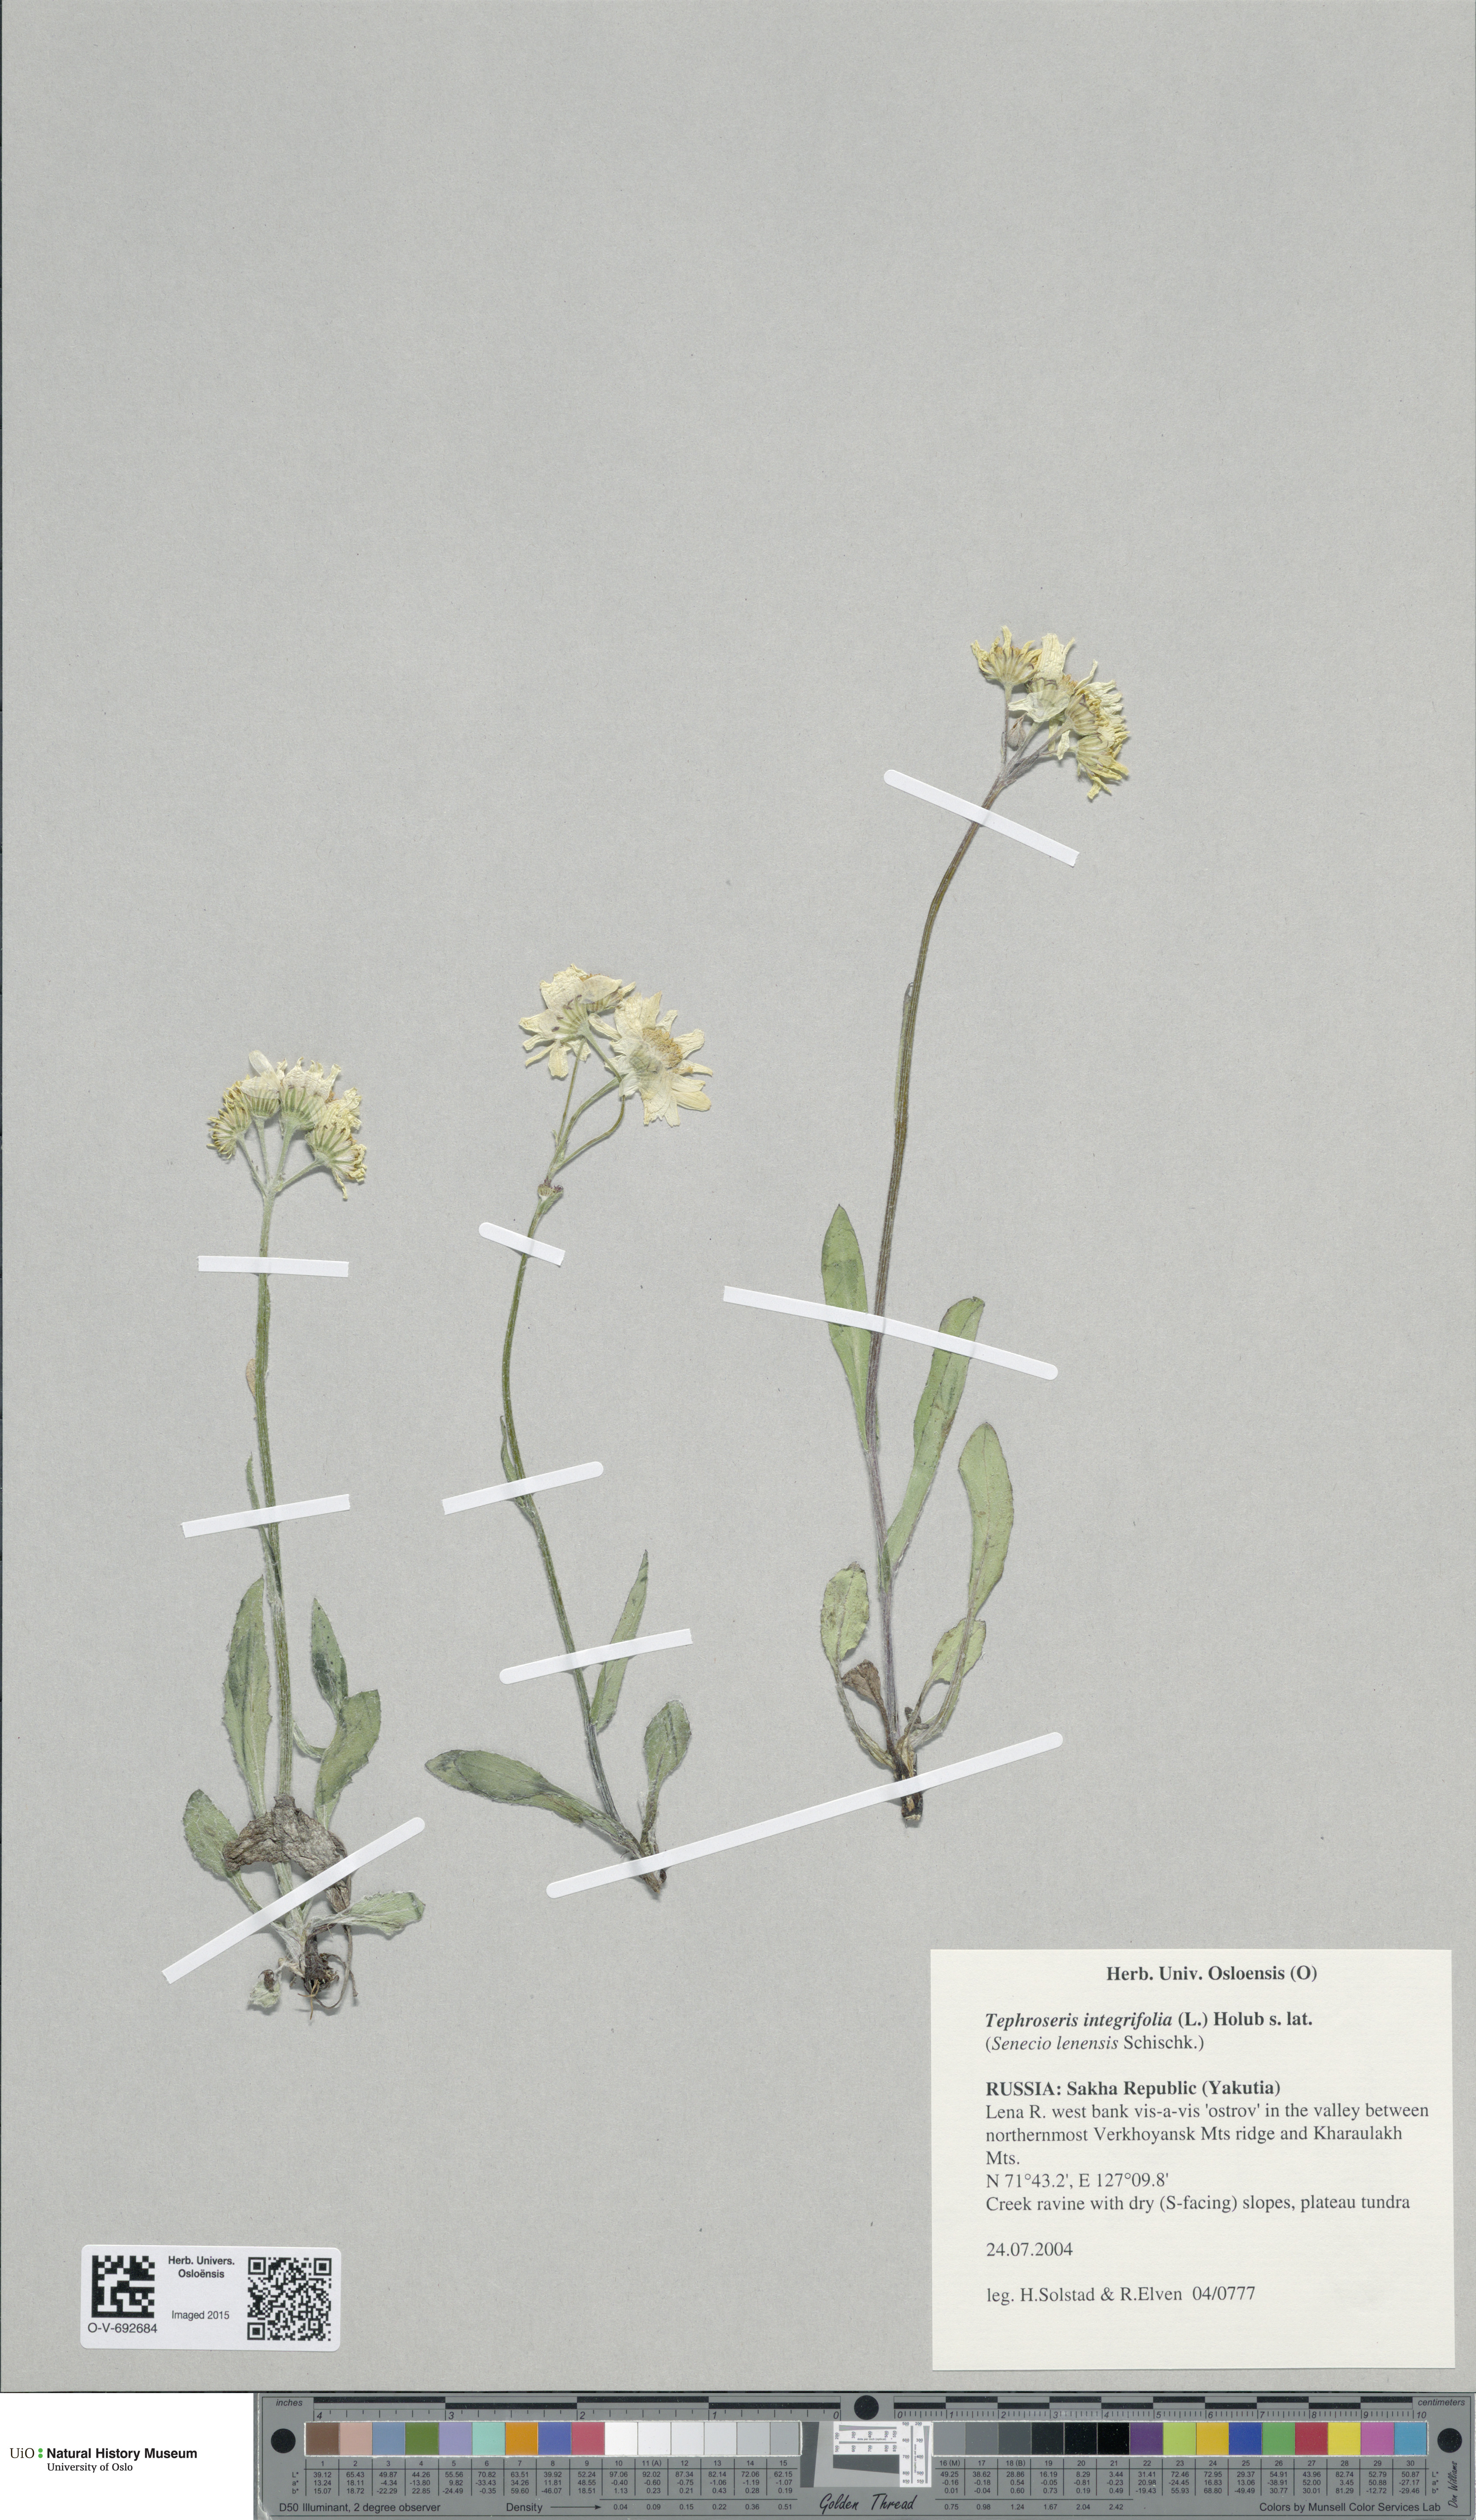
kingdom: Plantae
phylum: Tracheophyta
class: Magnoliopsida
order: Asterales
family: Asteraceae
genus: Tephroseris
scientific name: Tephroseris
